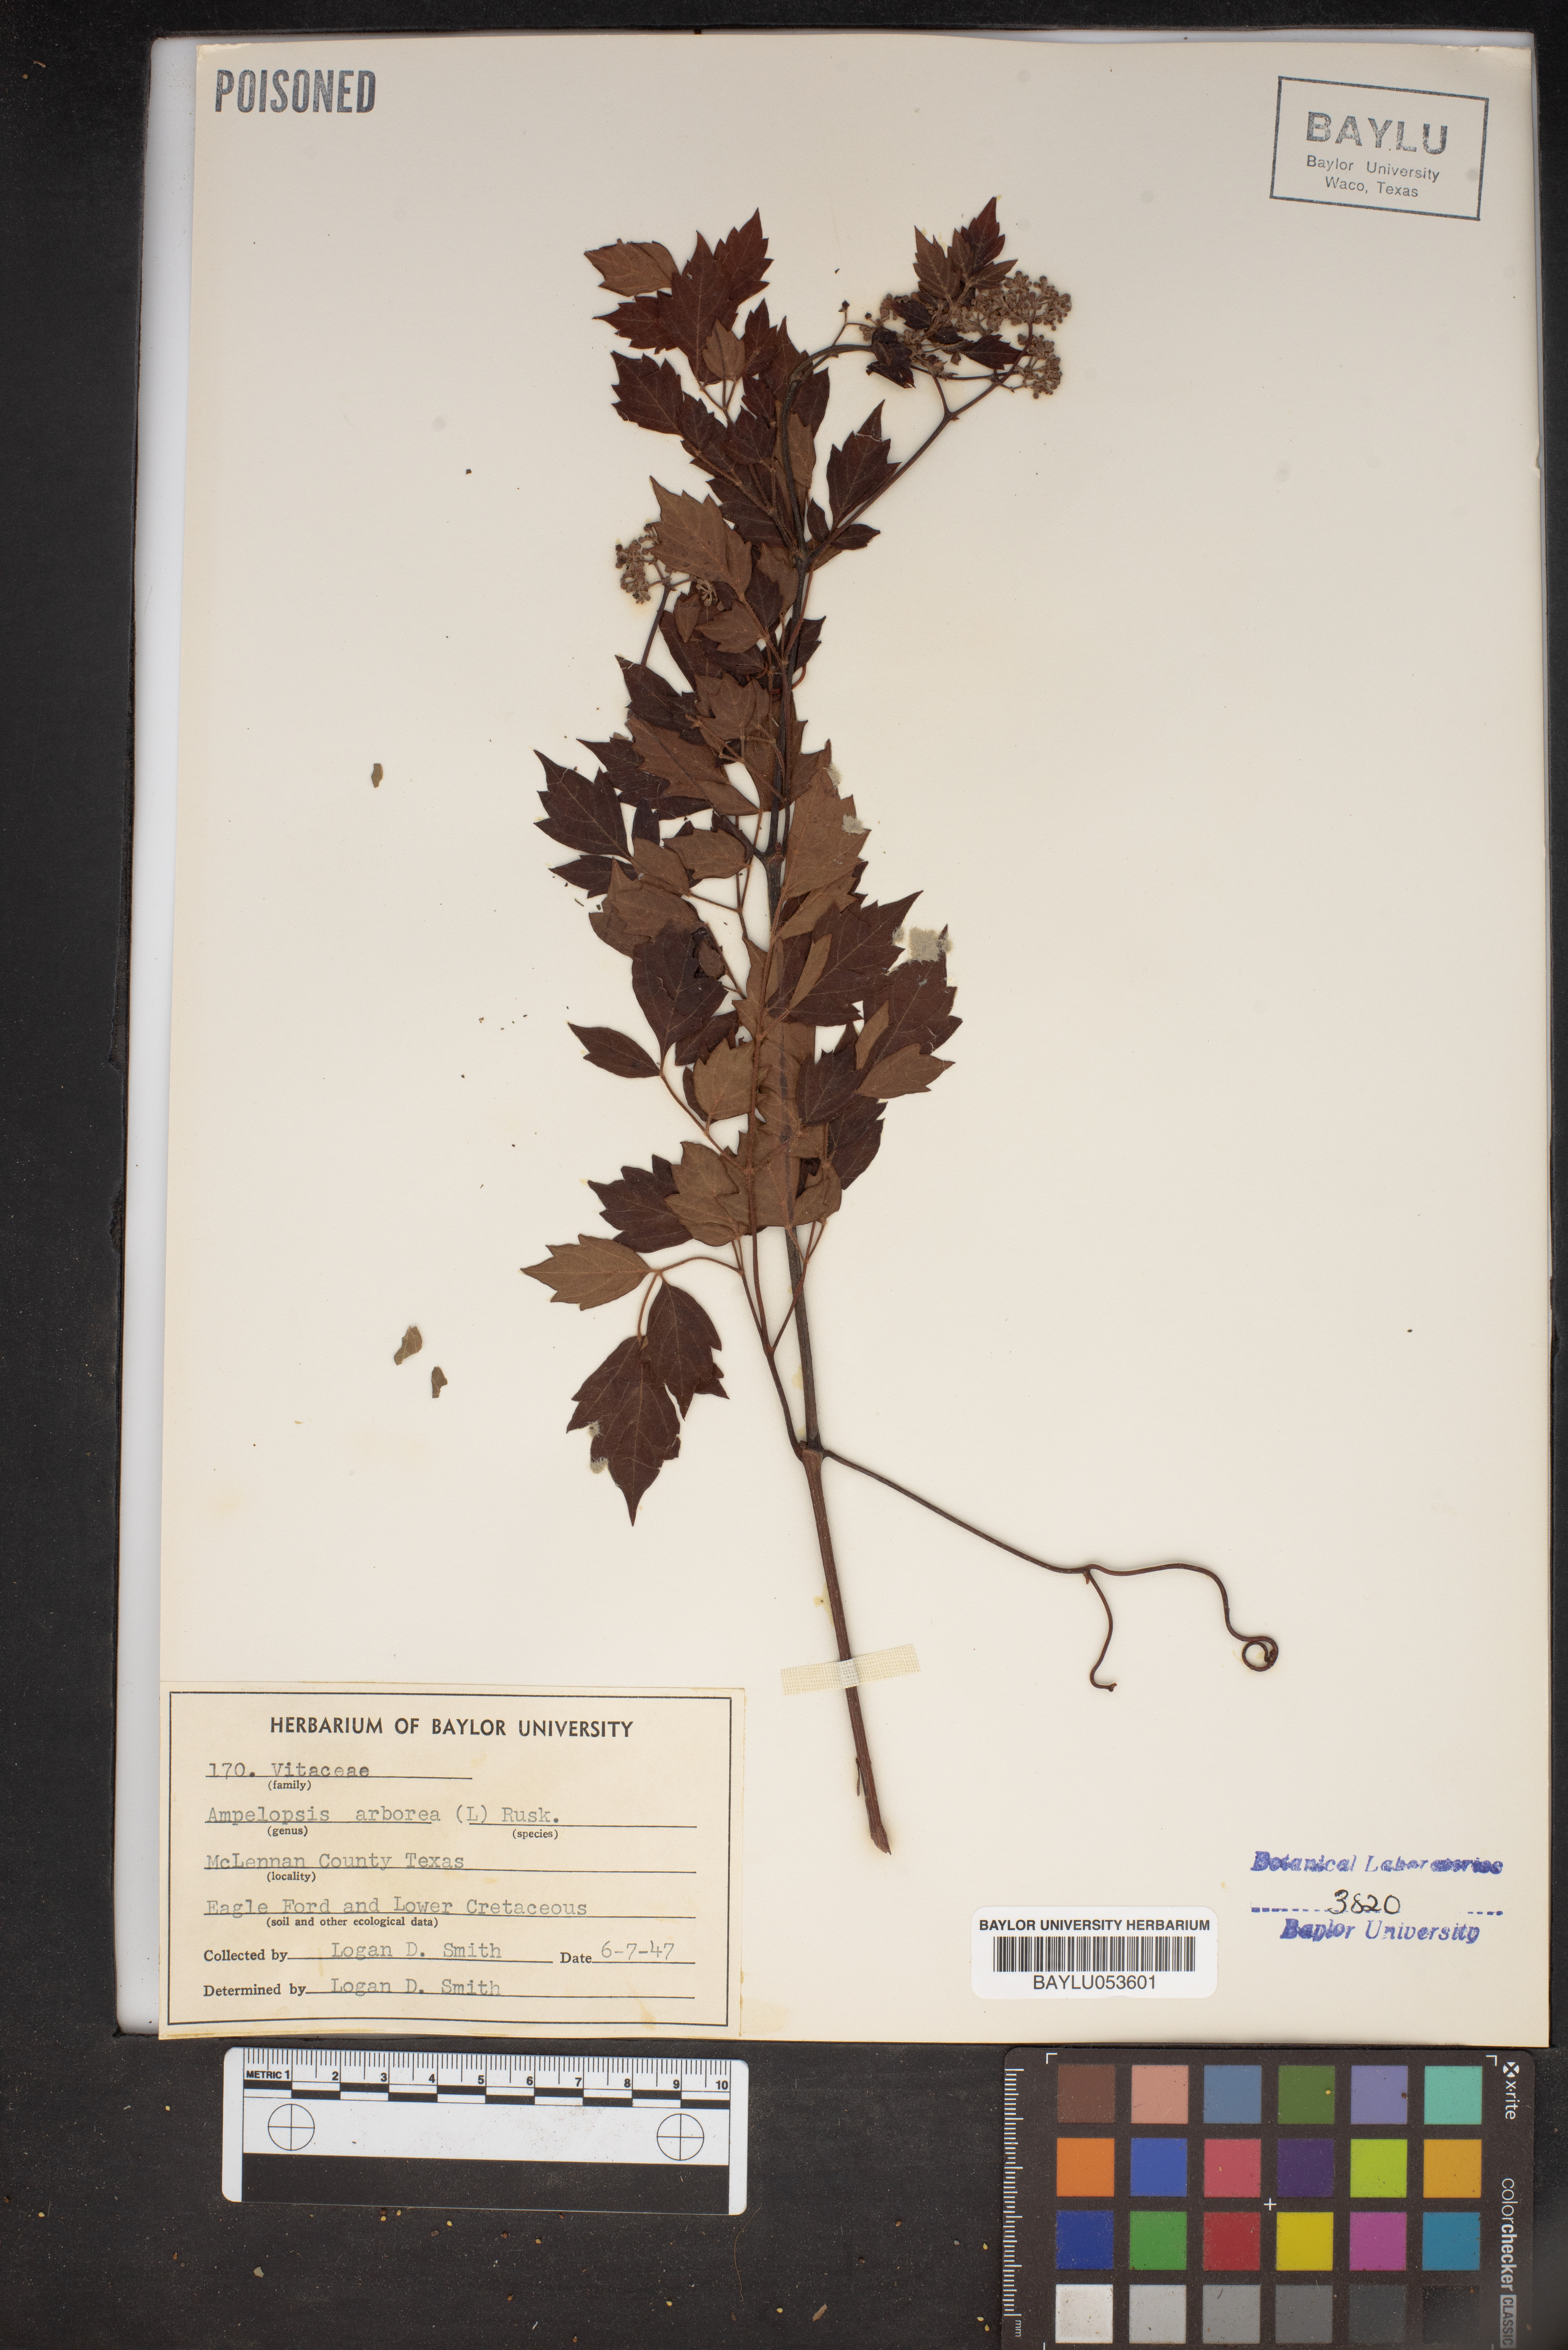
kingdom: Plantae
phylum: Tracheophyta
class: Magnoliopsida
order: Vitales
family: Vitaceae
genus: Nekemias
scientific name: Nekemias arborea
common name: Peppervine
